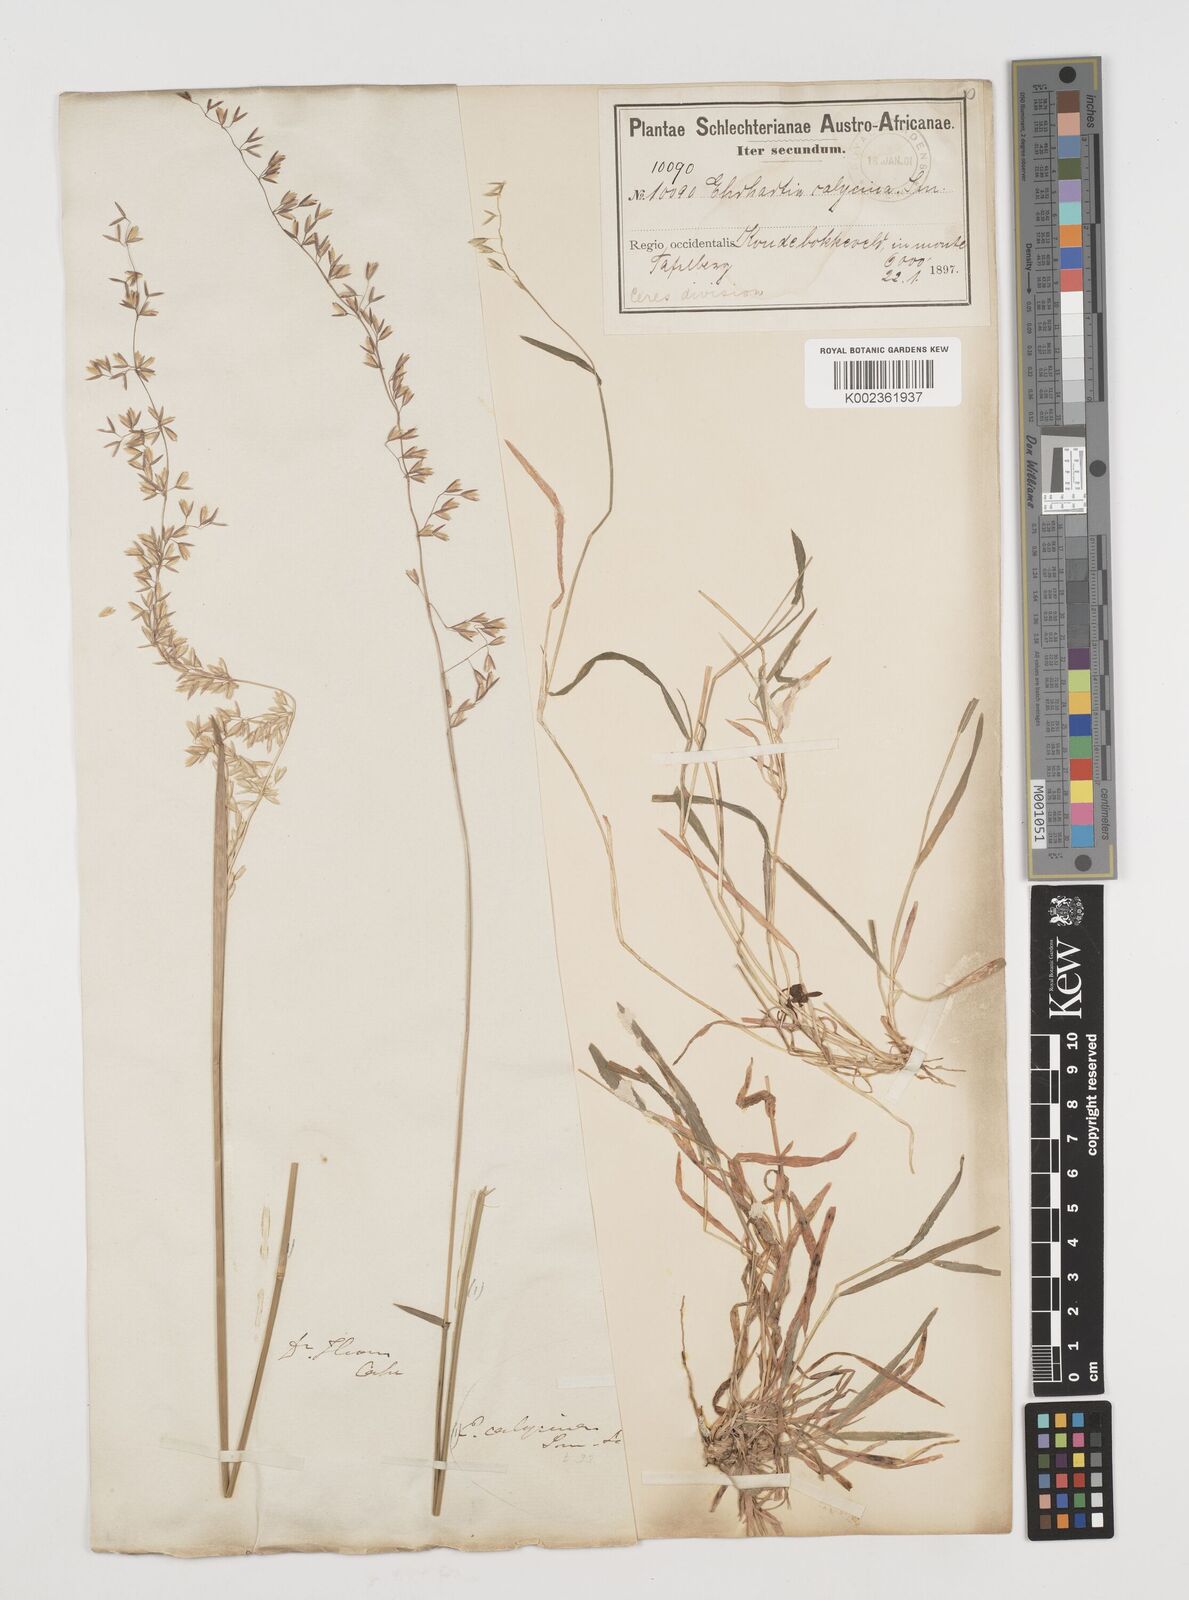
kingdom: Plantae
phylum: Tracheophyta
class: Liliopsida
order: Poales
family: Poaceae
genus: Ehrharta
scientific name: Ehrharta calycina
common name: Perennial veldtgrass
